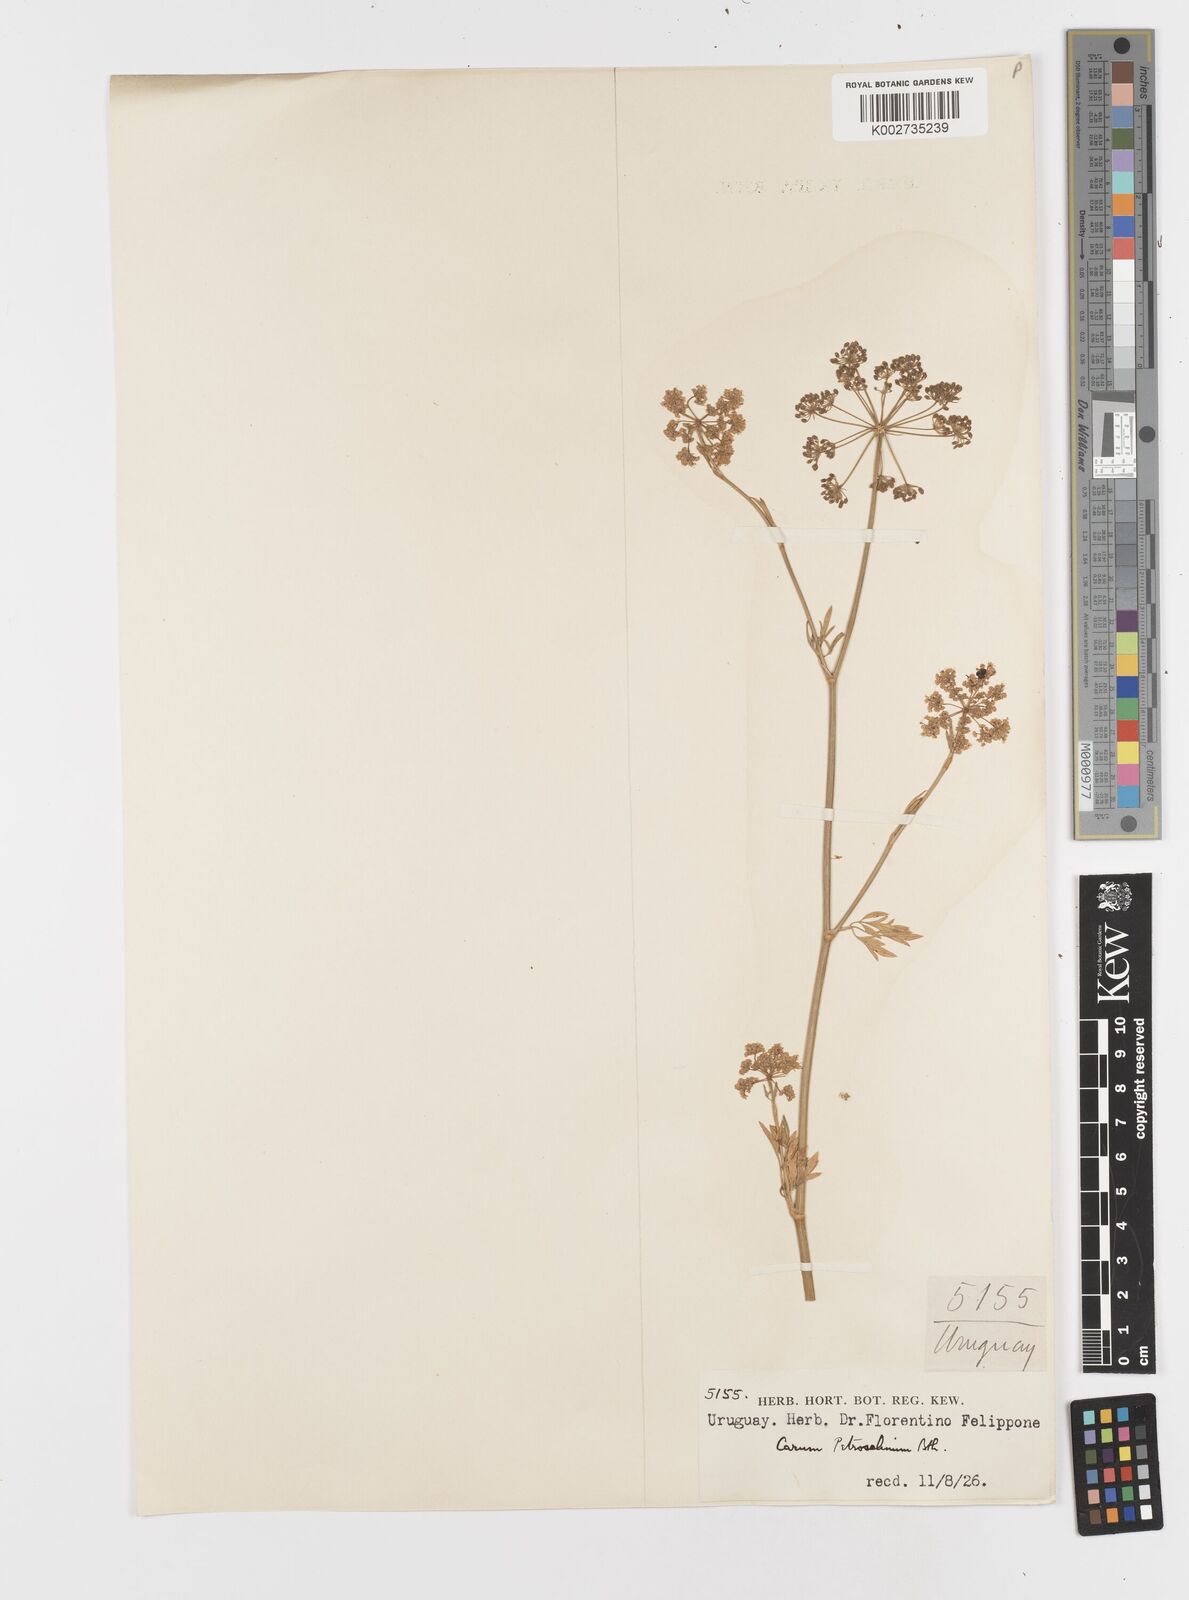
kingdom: Plantae
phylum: Tracheophyta
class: Magnoliopsida
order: Apiales
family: Apiaceae
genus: Petroselinum
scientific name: Petroselinum crispum
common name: Parsley
